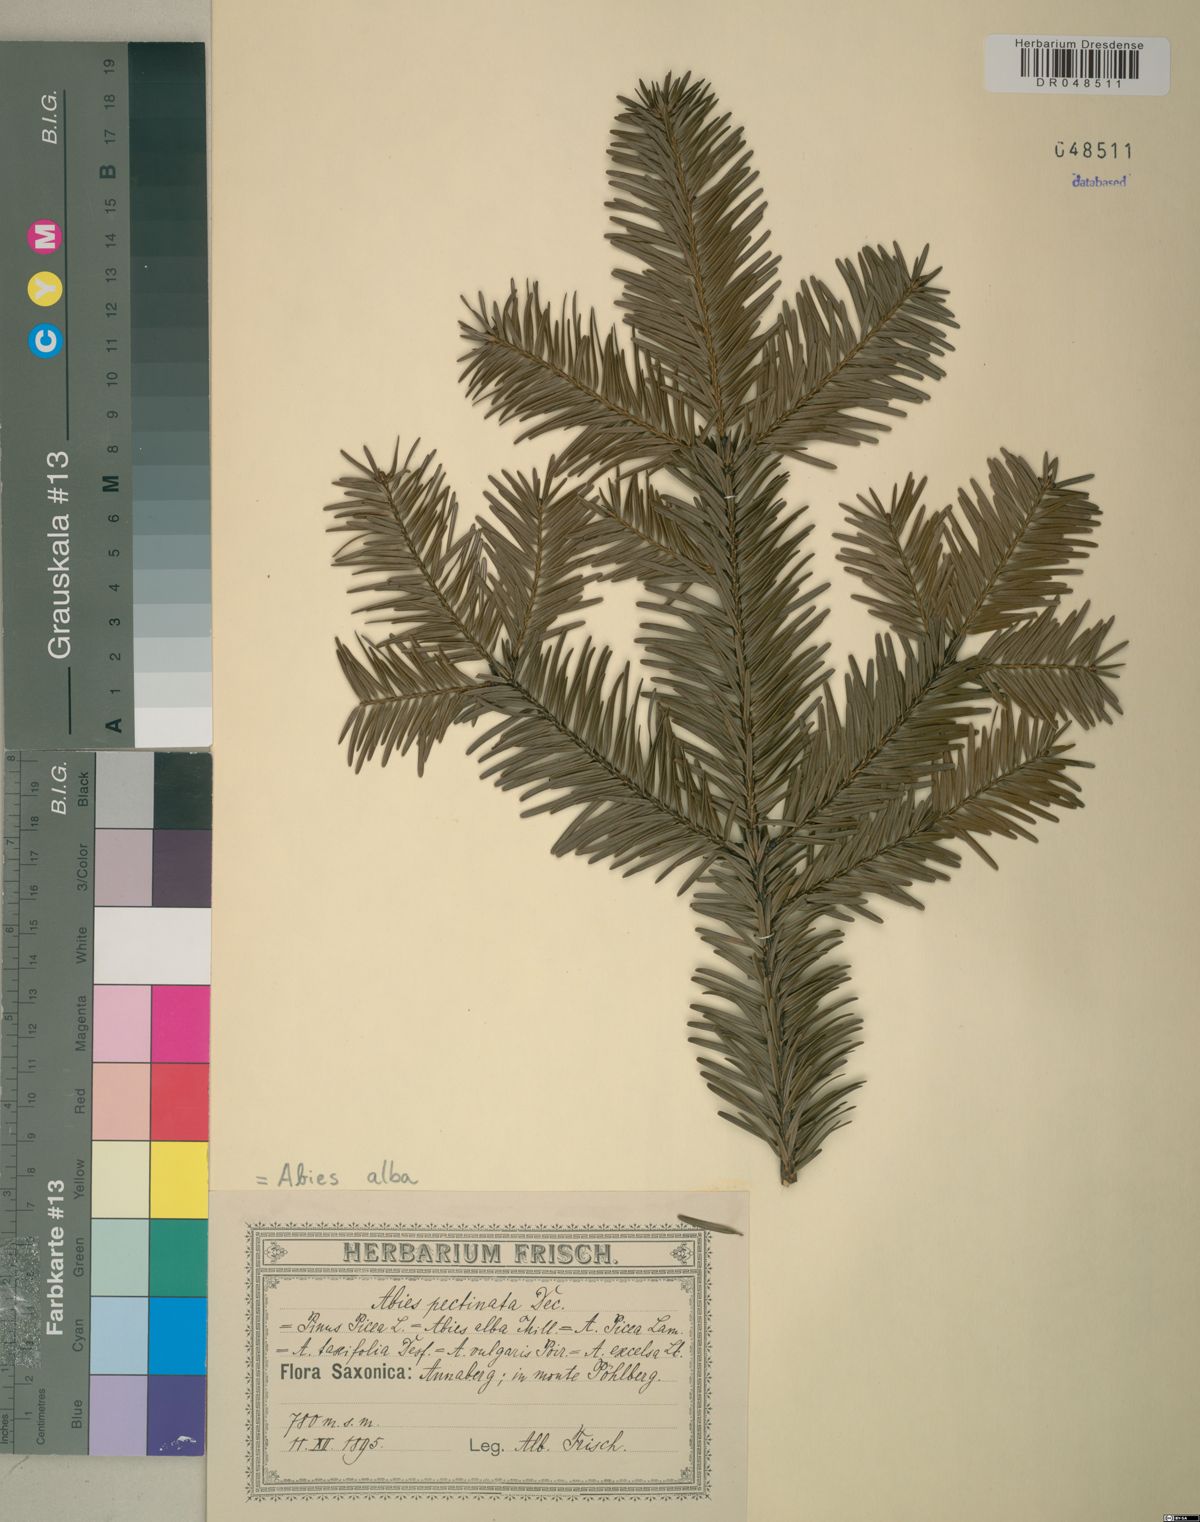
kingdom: Plantae
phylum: Tracheophyta
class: Pinopsida
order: Pinales
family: Pinaceae
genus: Abies
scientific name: Abies alba
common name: Silver fir
